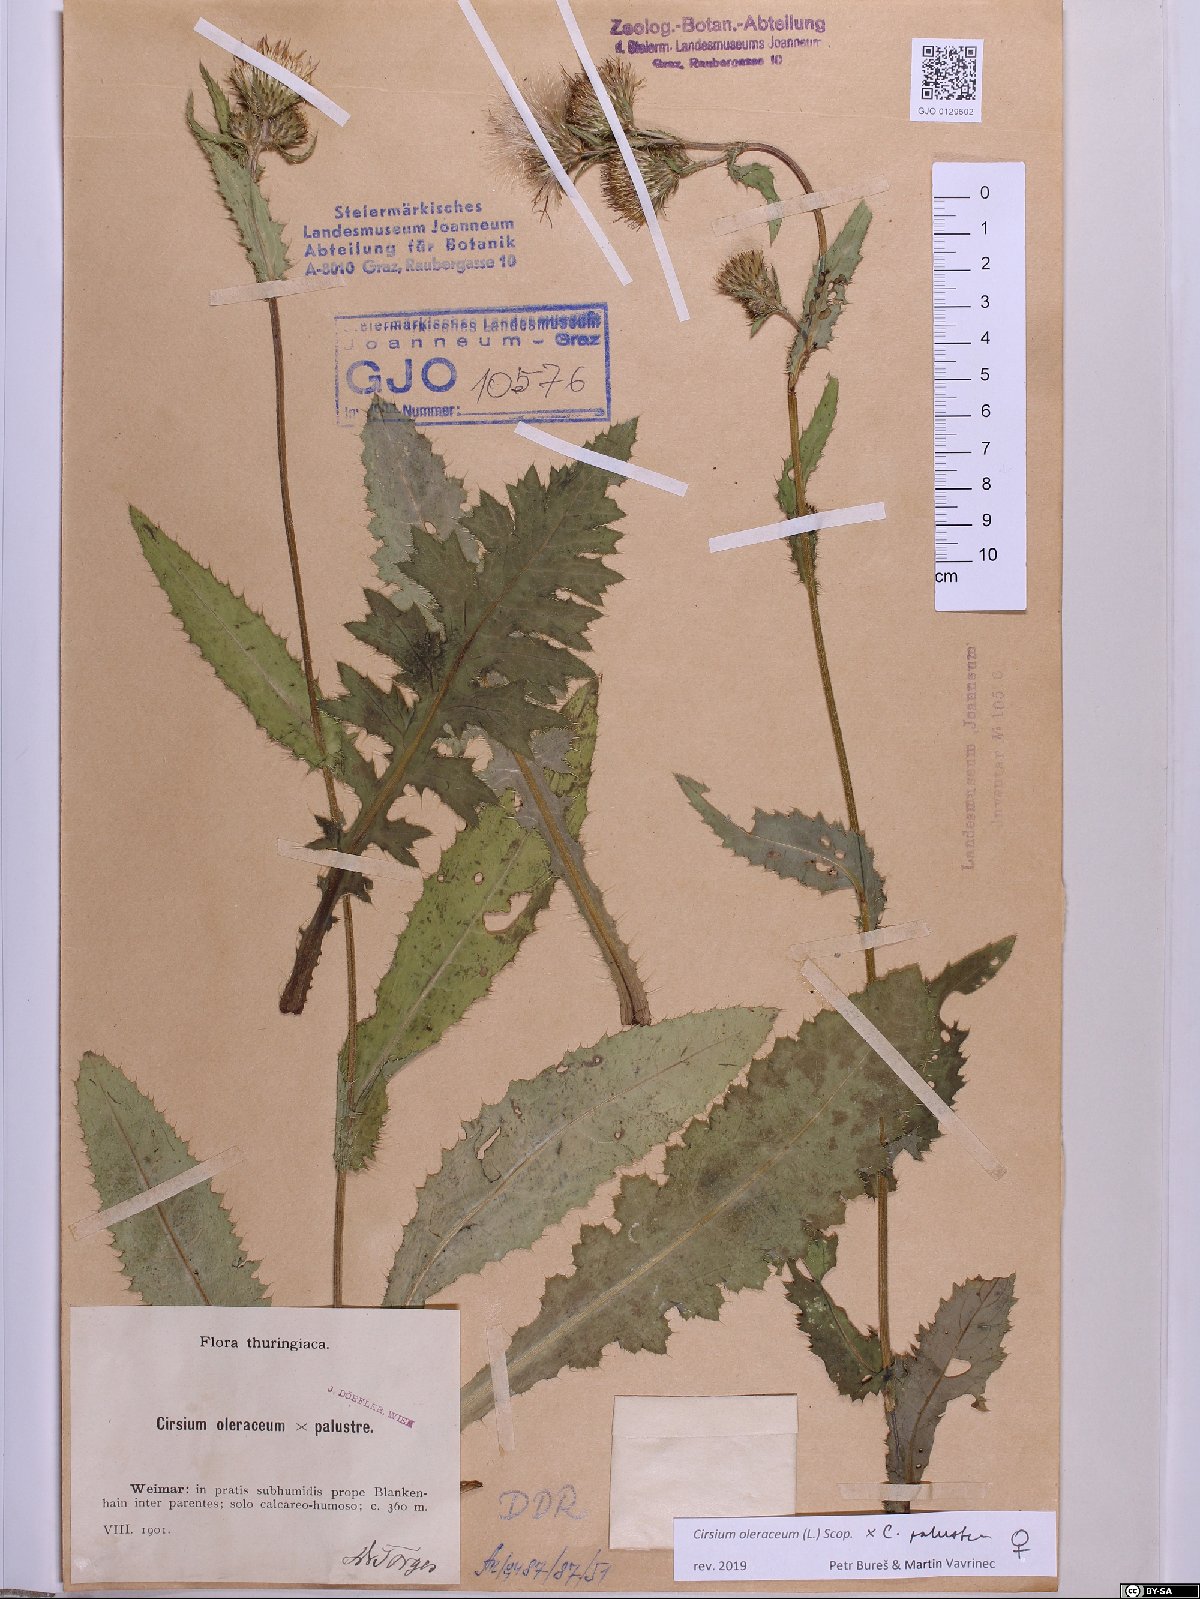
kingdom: Plantae
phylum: Tracheophyta
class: Magnoliopsida
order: Asterales
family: Asteraceae
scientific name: Asteraceae
